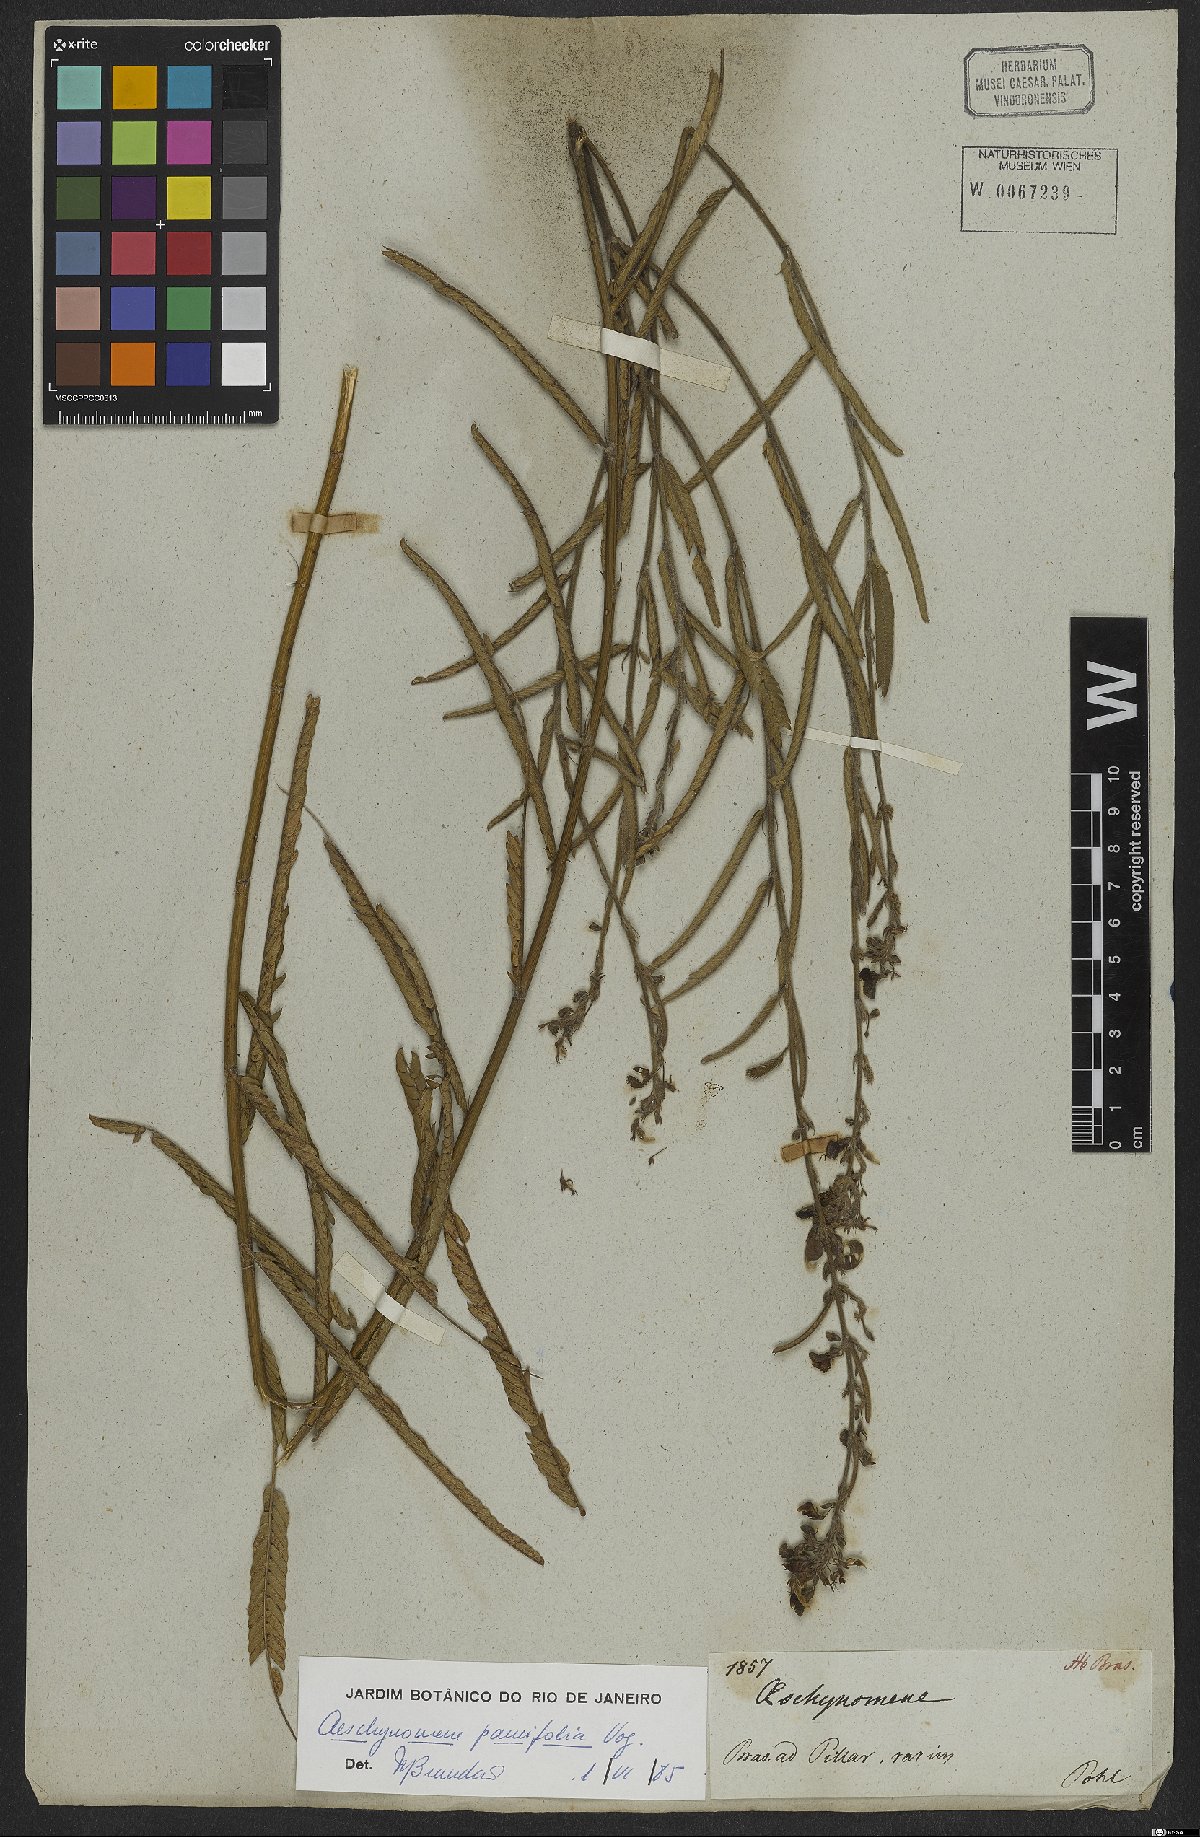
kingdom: Plantae
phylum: Tracheophyta
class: Magnoliopsida
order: Fabales
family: Fabaceae
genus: Ctenodon
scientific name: Ctenodon paucifolius
